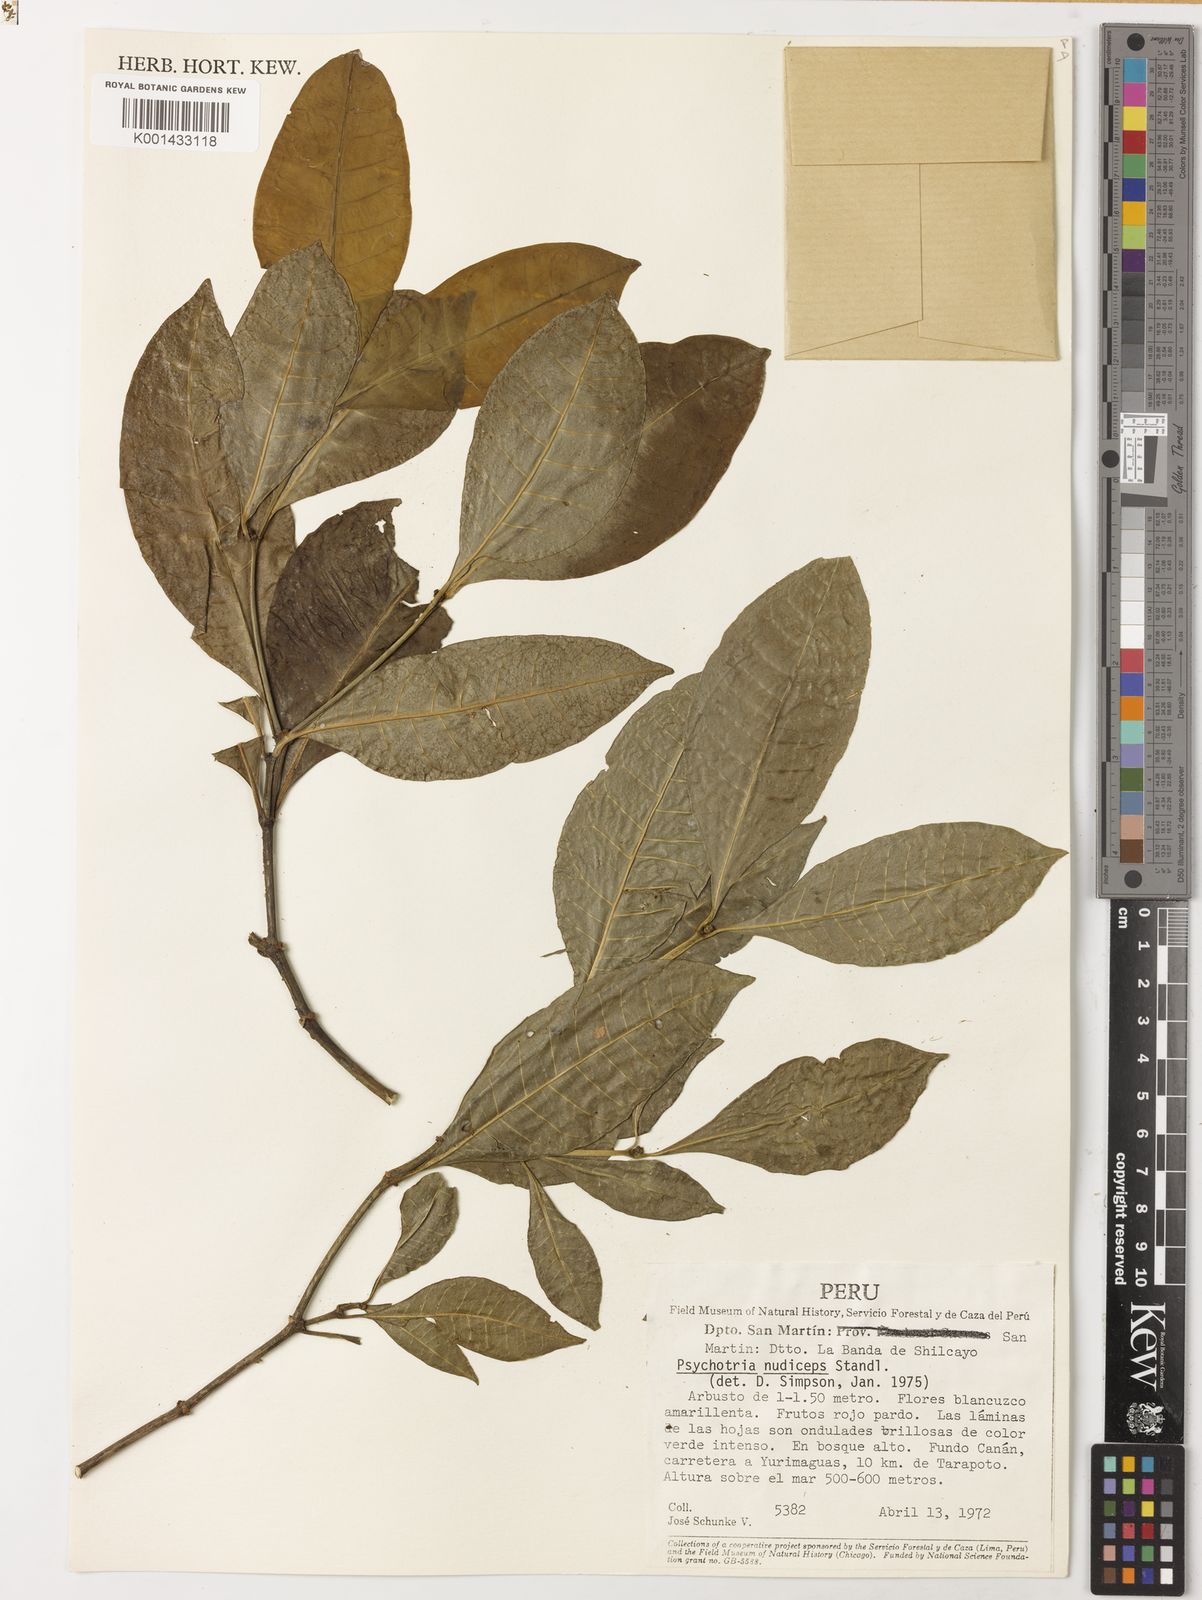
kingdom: Plantae
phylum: Tracheophyta
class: Magnoliopsida
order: Gentianales
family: Rubiaceae
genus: Eumachia
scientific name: Eumachia nana
